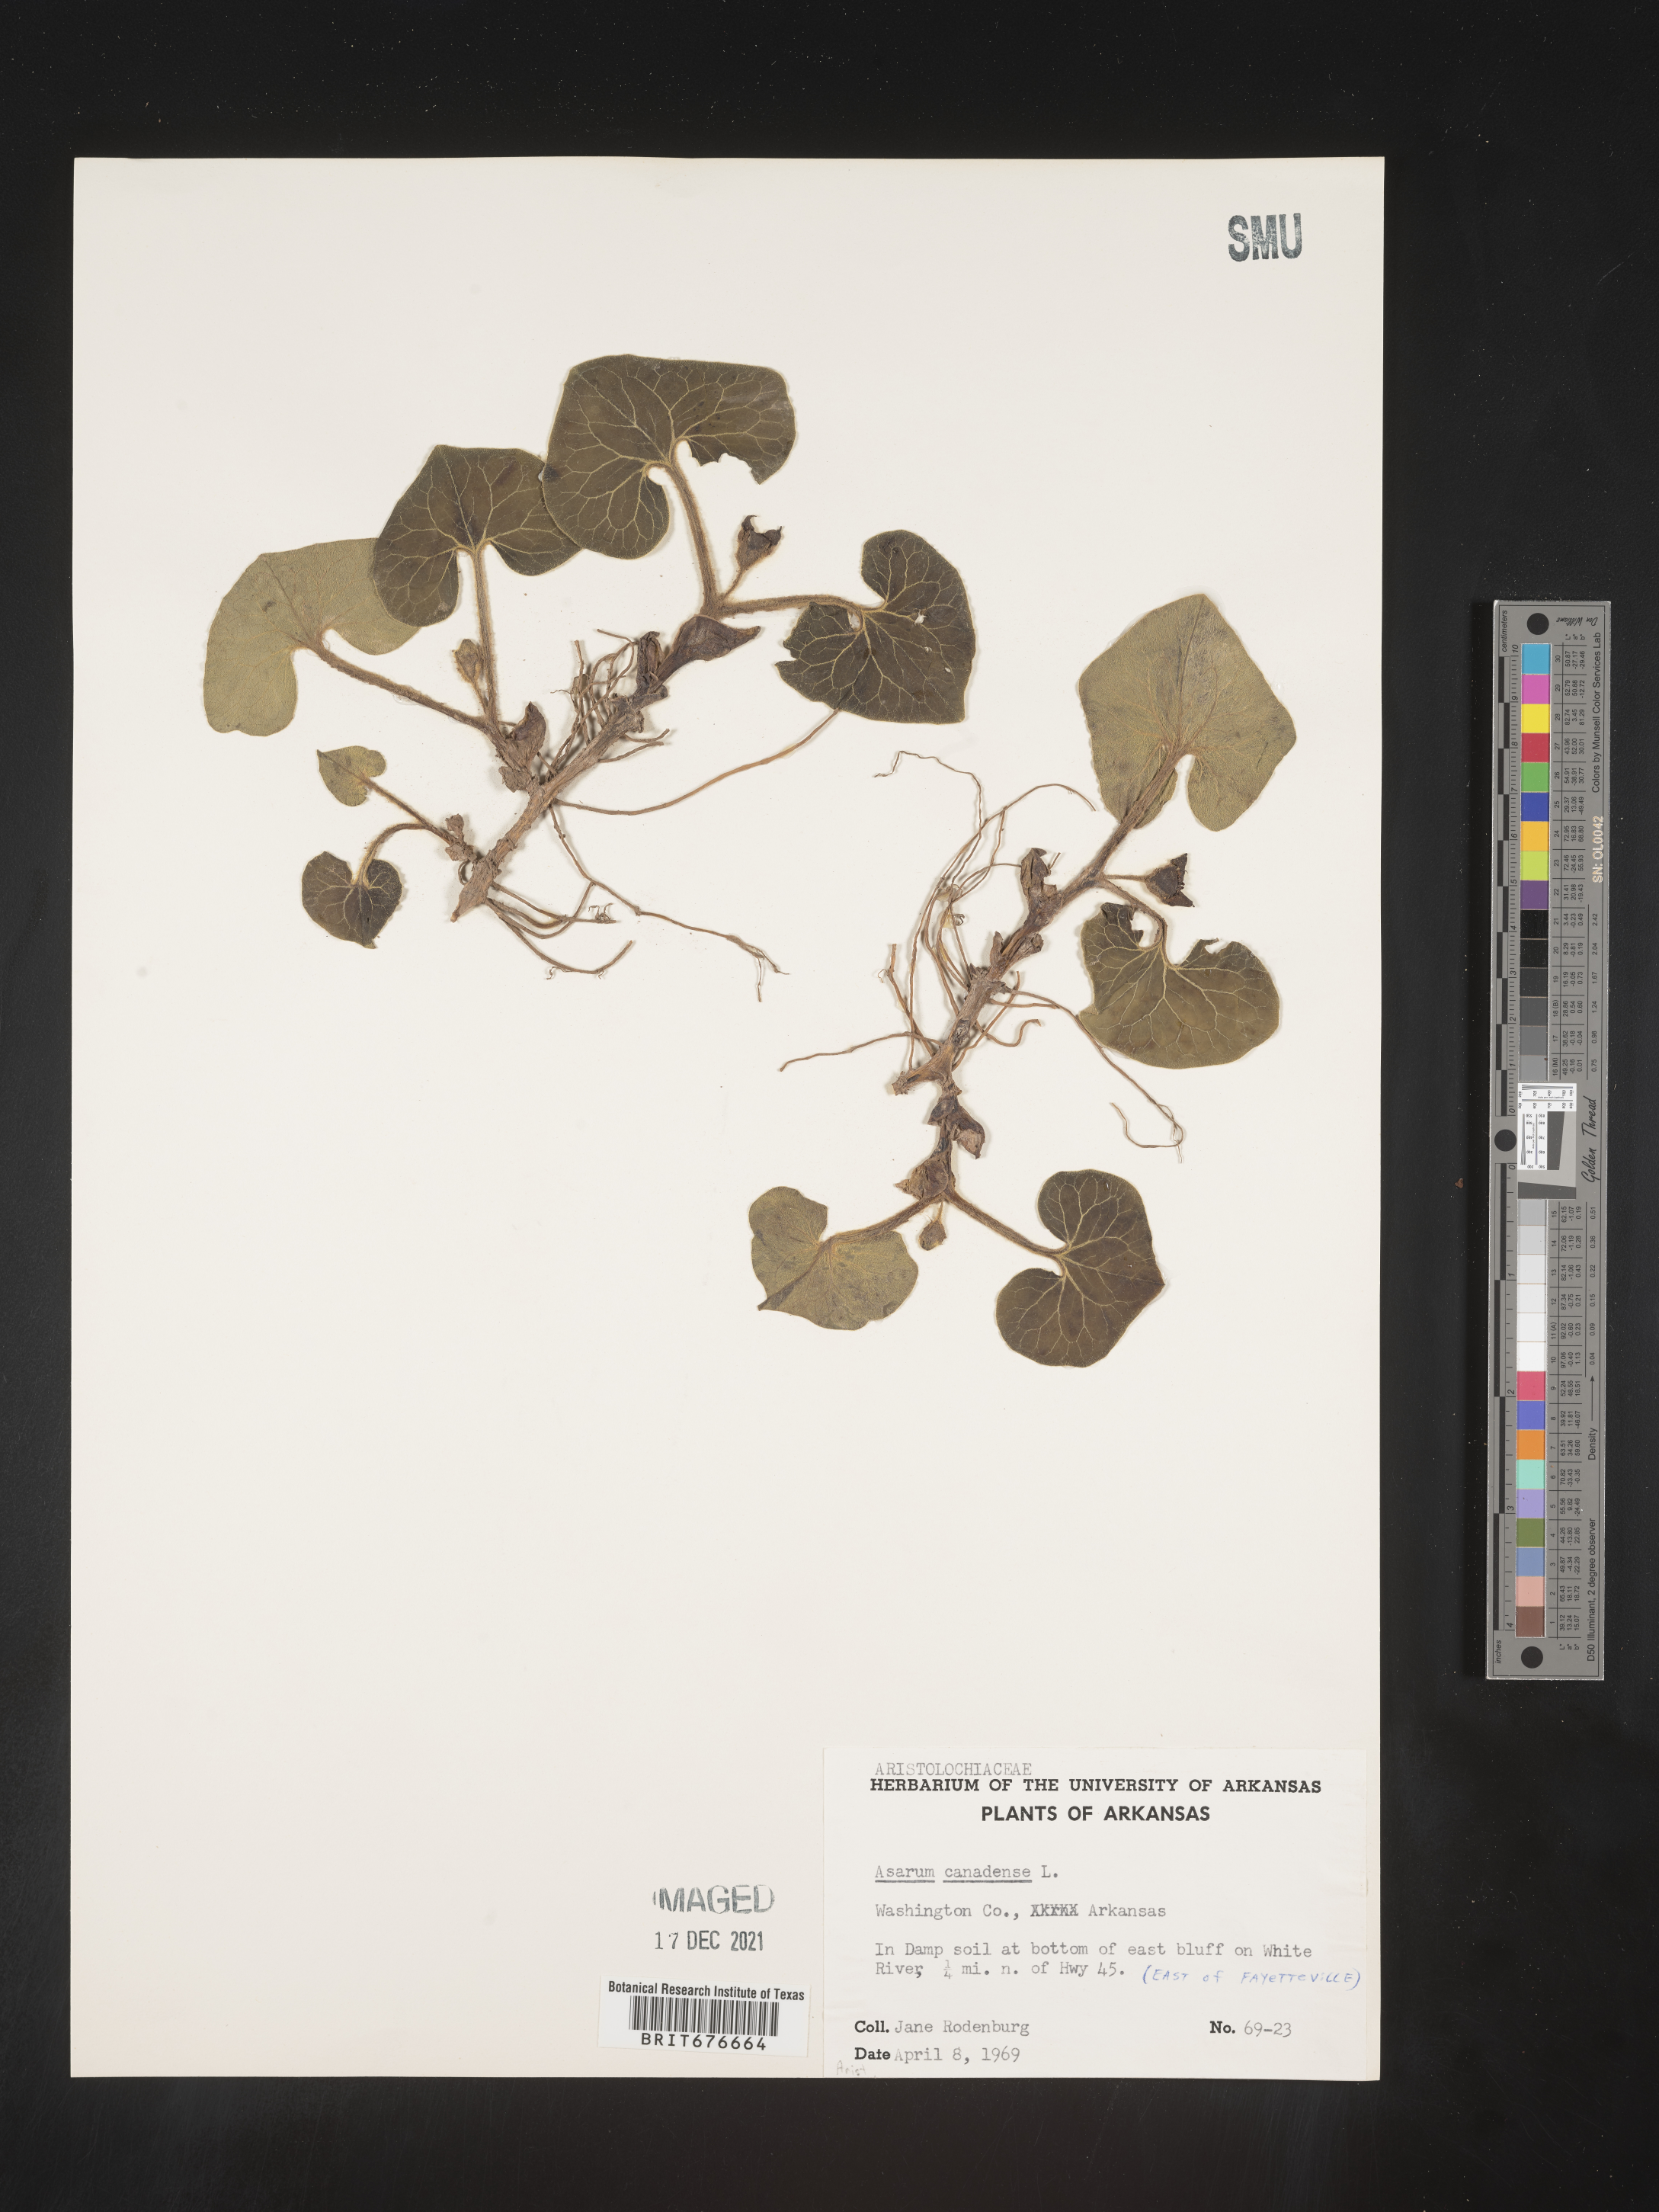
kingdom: Plantae
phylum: Tracheophyta
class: Magnoliopsida
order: Piperales
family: Aristolochiaceae
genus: Asarum
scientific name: Asarum canadense
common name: Wild ginger
